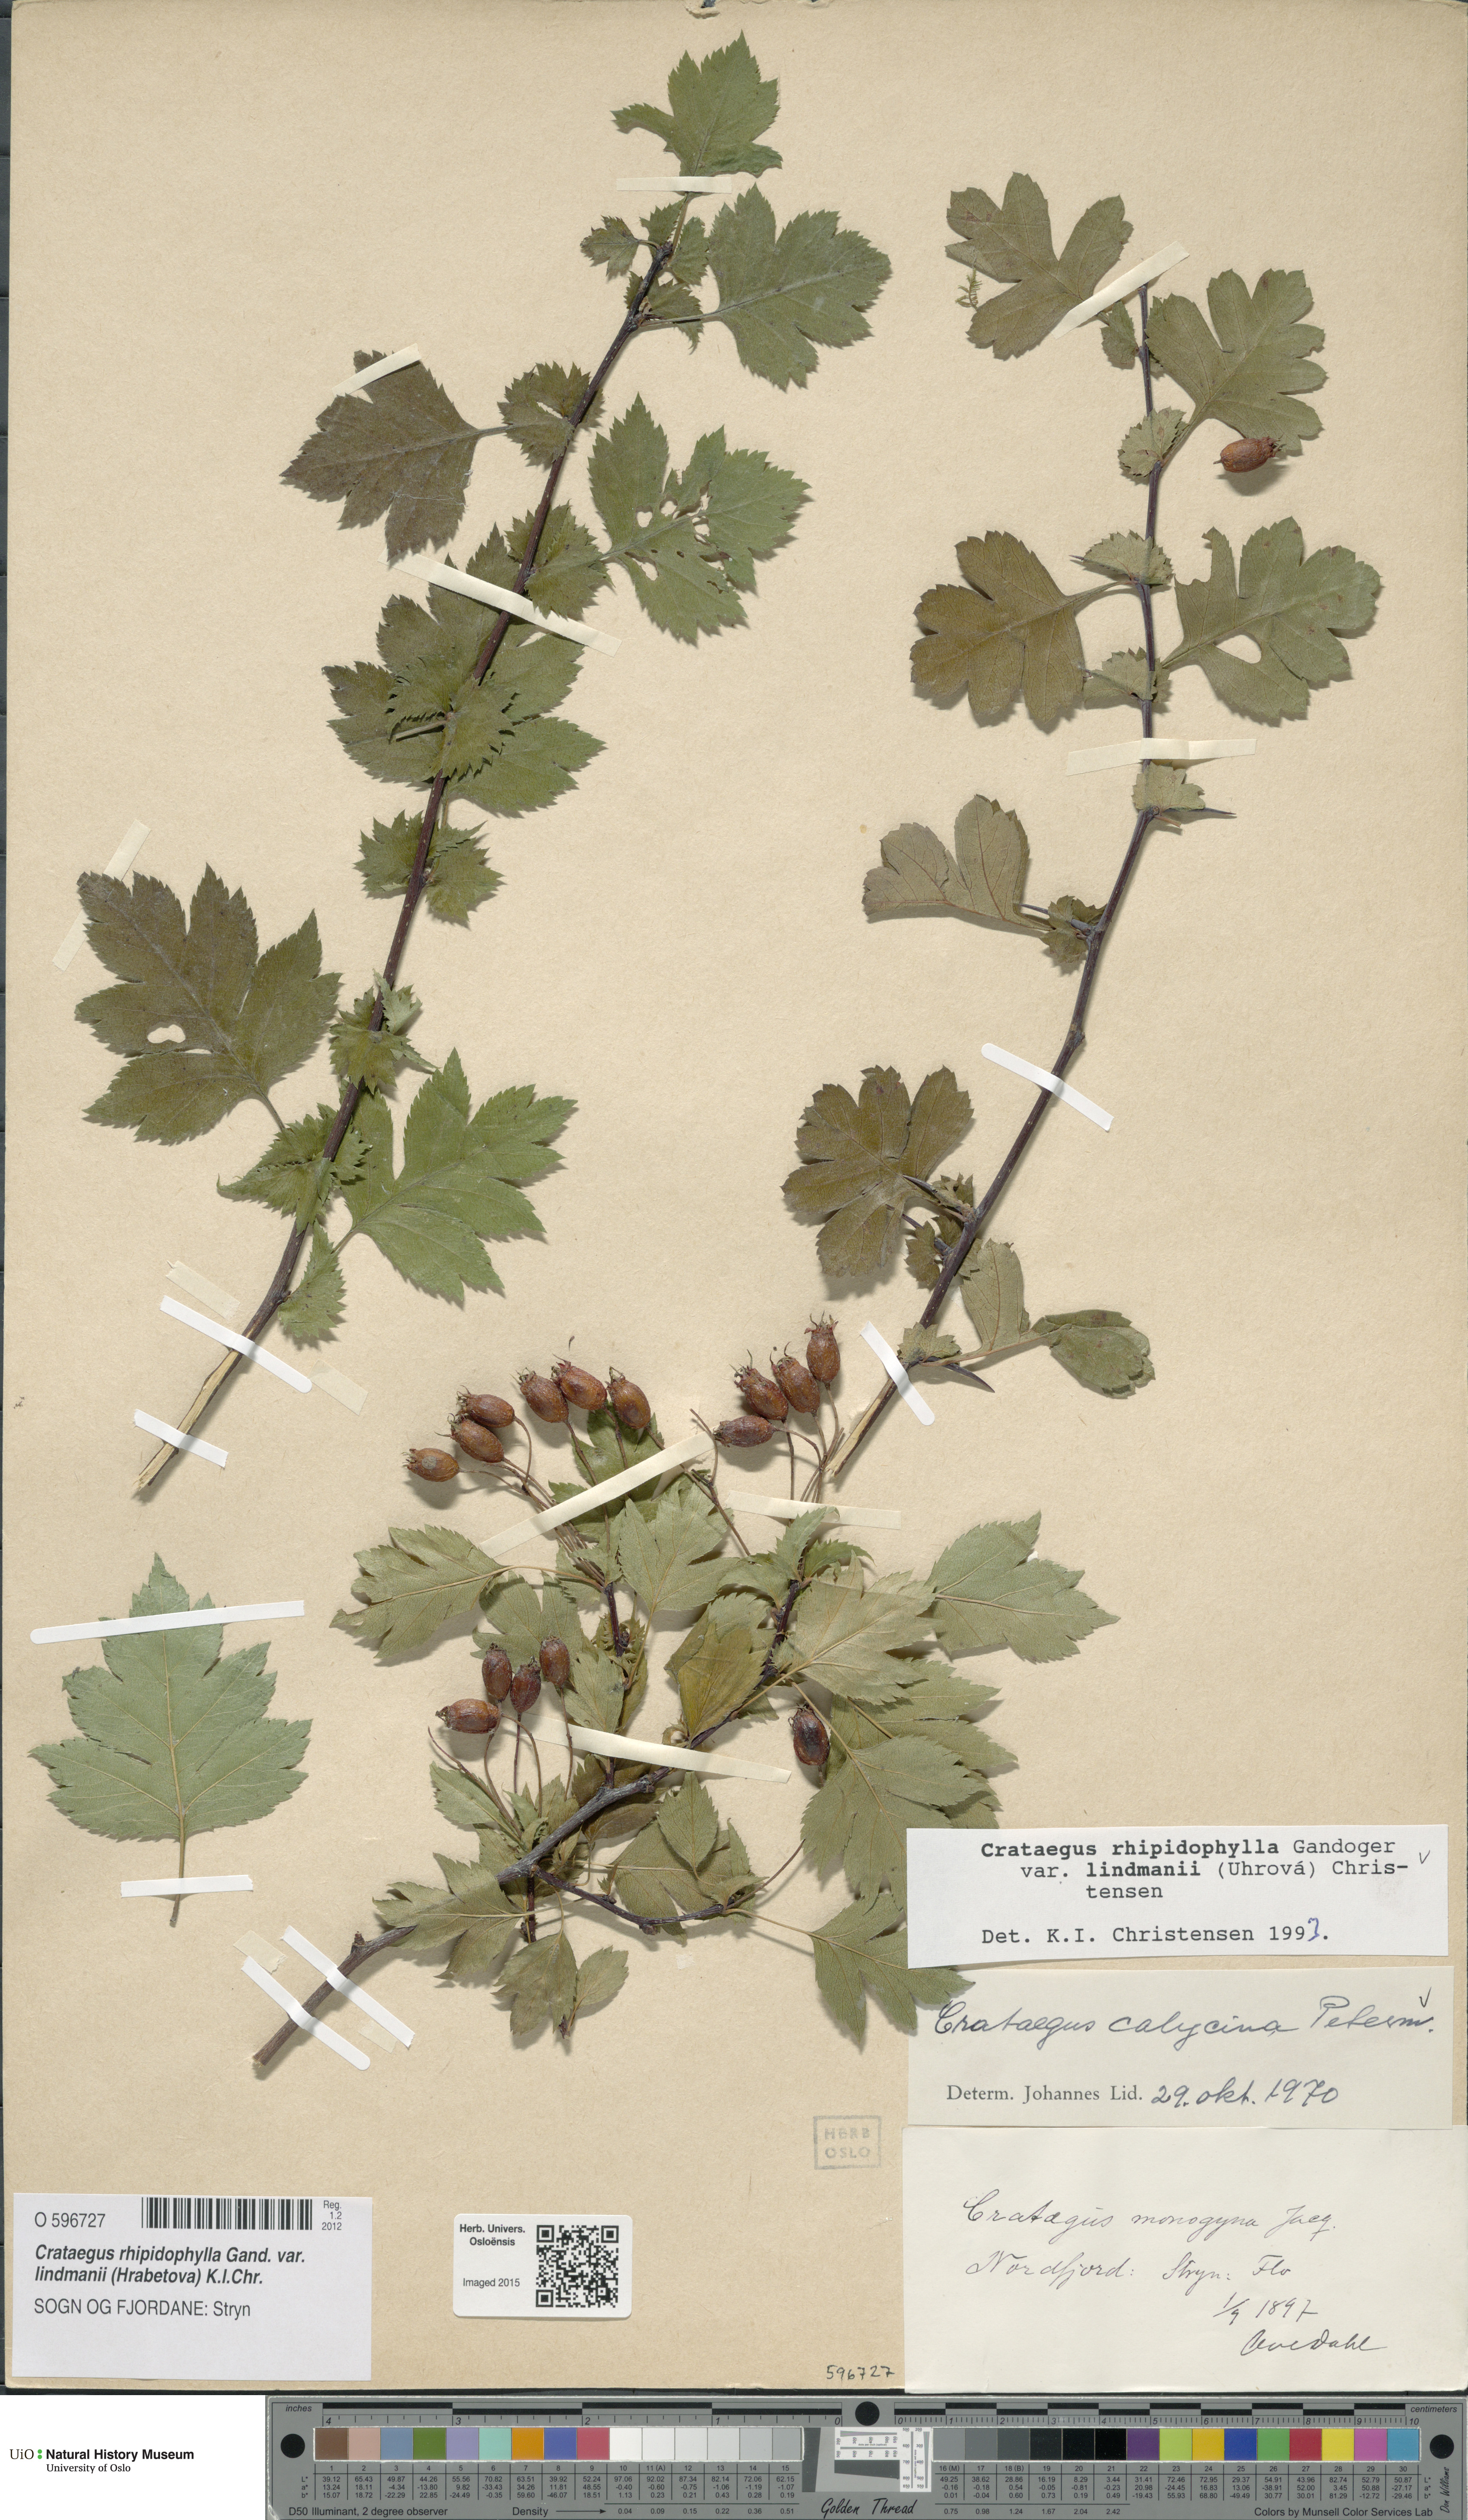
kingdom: Plantae
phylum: Tracheophyta
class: Magnoliopsida
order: Rosales
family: Rosaceae
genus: Crataegus
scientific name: Crataegus lindmanii
